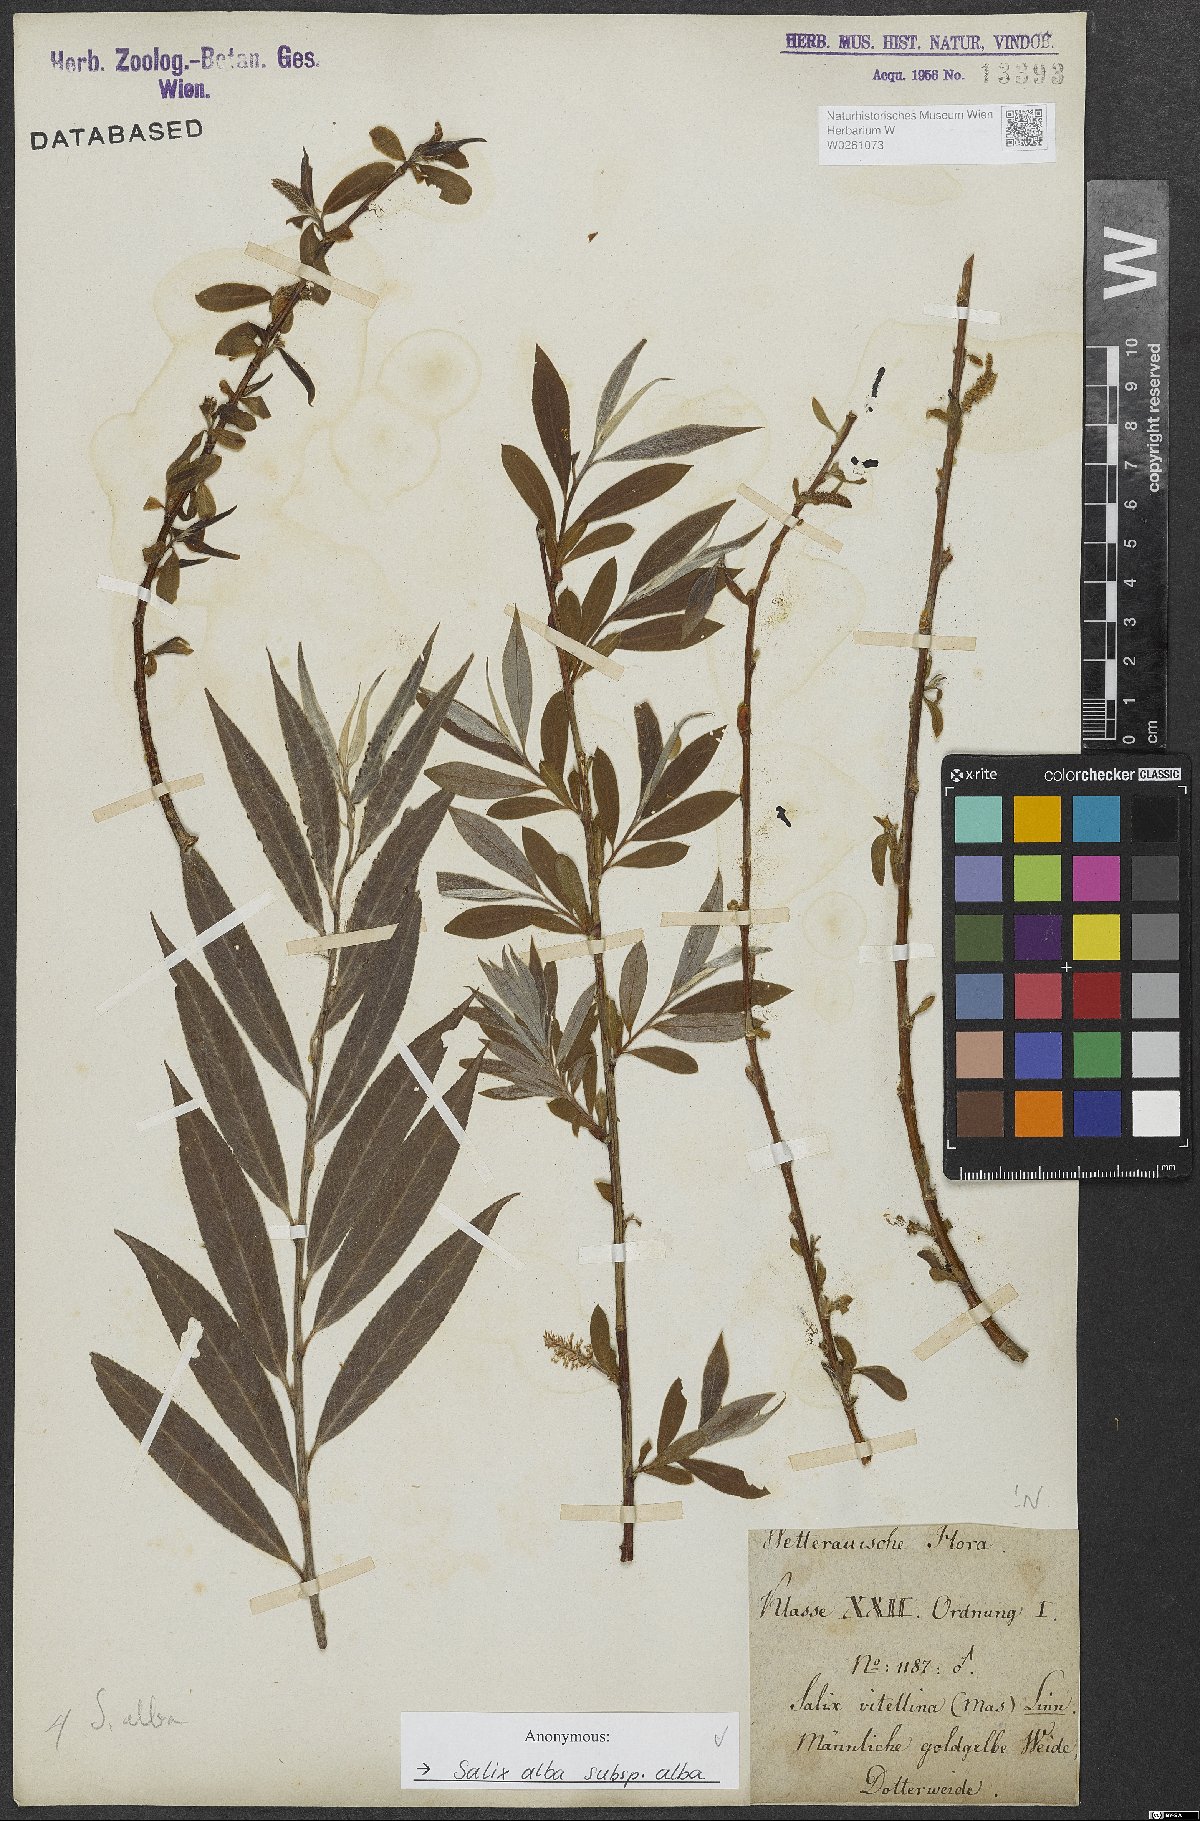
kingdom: Plantae
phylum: Tracheophyta
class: Magnoliopsida
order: Malpighiales
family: Salicaceae
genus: Salix
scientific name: Salix alba
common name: White willow
